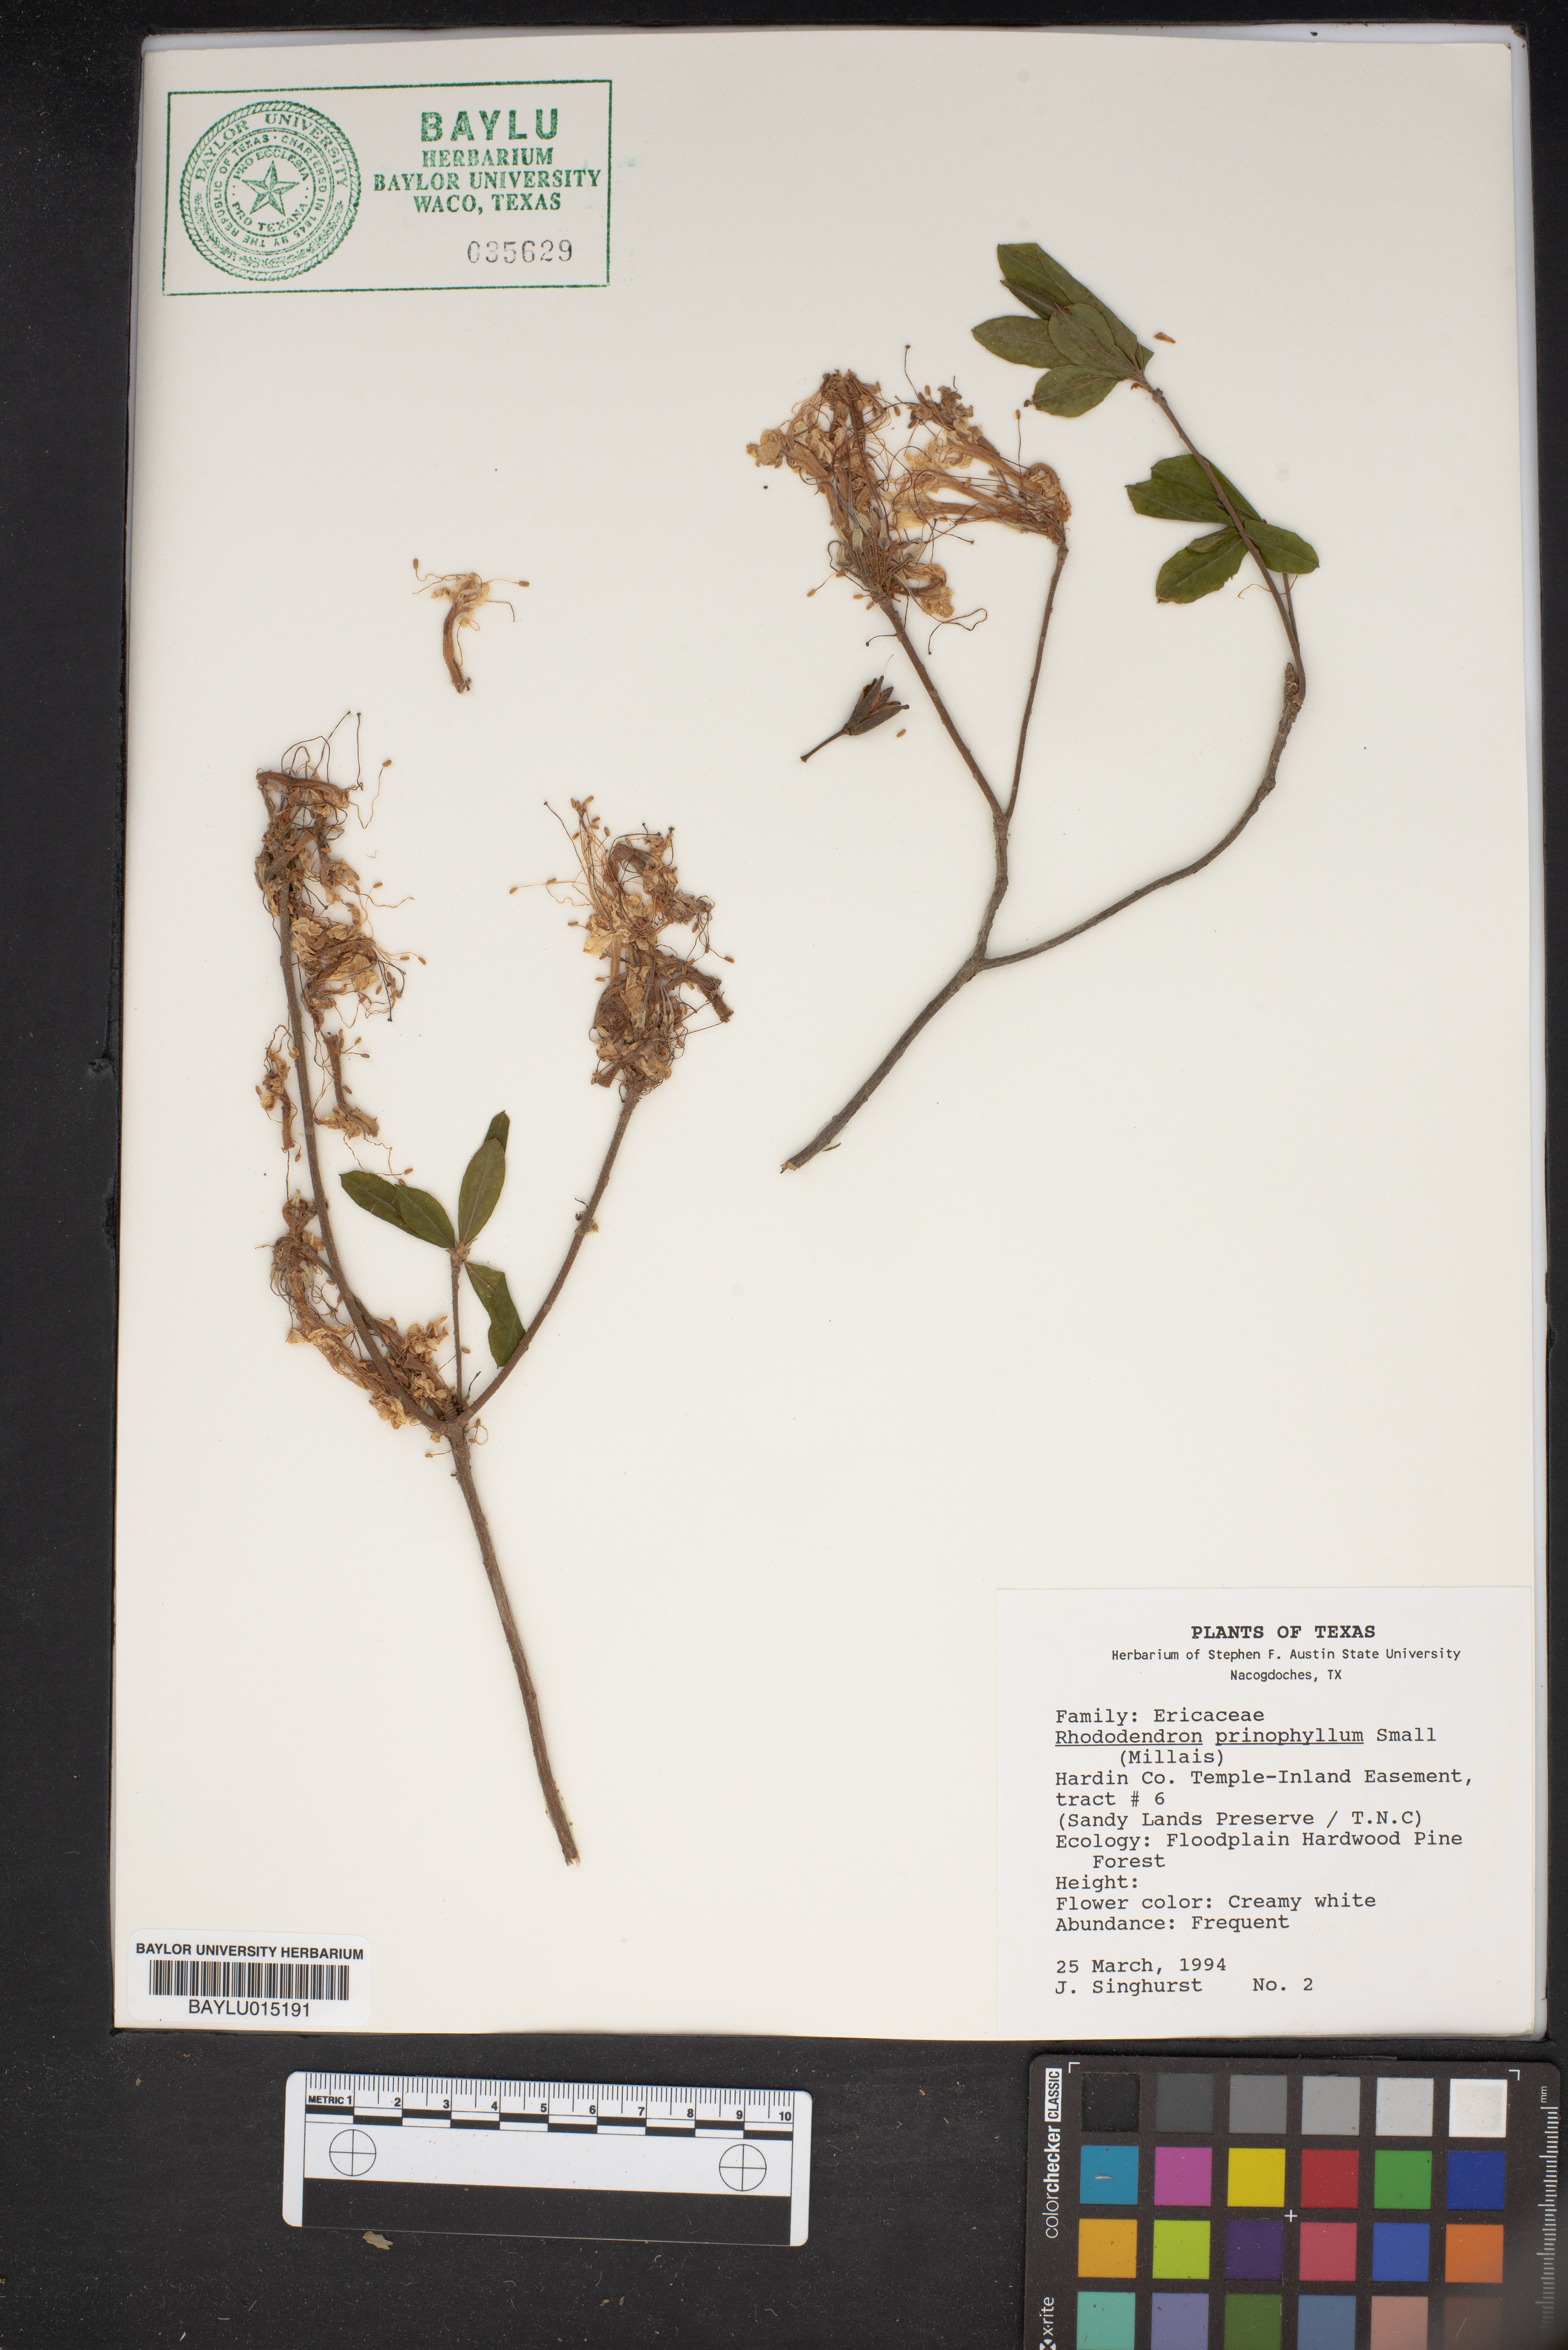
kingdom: Plantae
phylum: Tracheophyta
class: Magnoliopsida
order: Ericales
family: Ericaceae
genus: Rhododendron
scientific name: Rhododendron roseum
